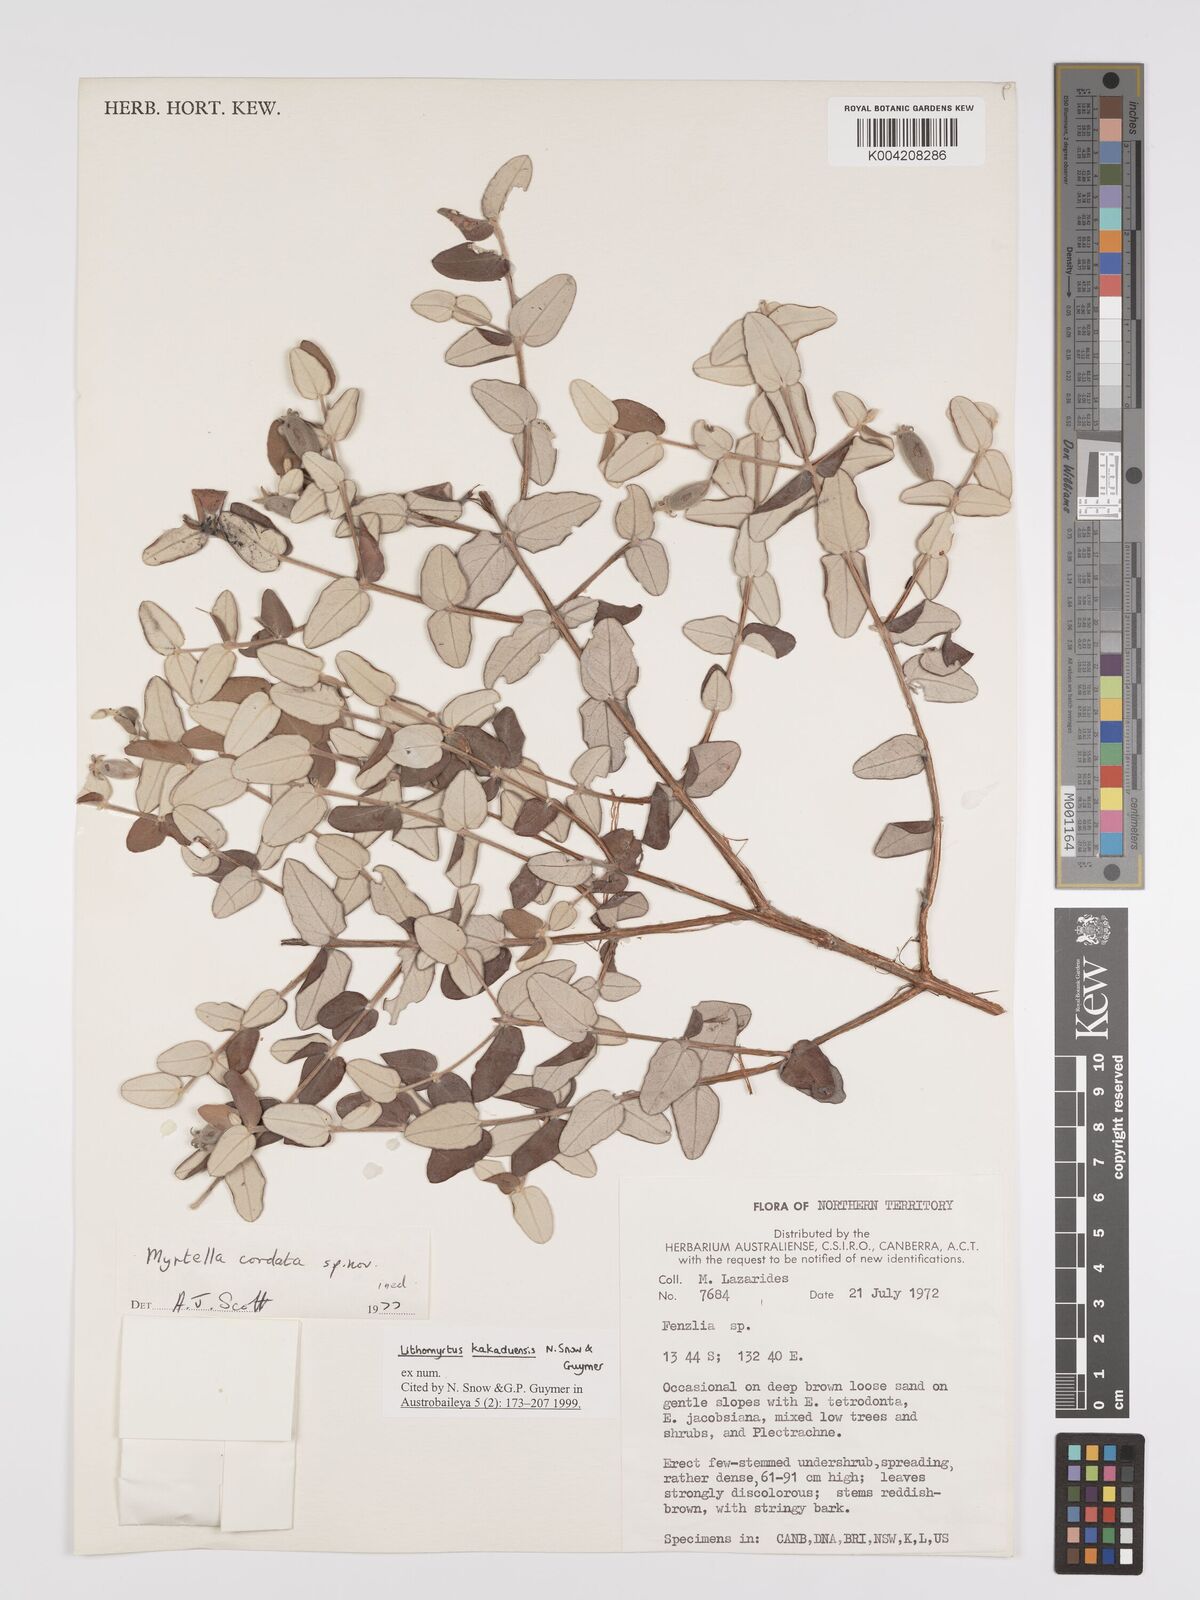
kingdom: Plantae
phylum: Tracheophyta
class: Magnoliopsida
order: Myrtales
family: Myrtaceae
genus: Lithomyrtus
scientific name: Lithomyrtus kakaduensis
